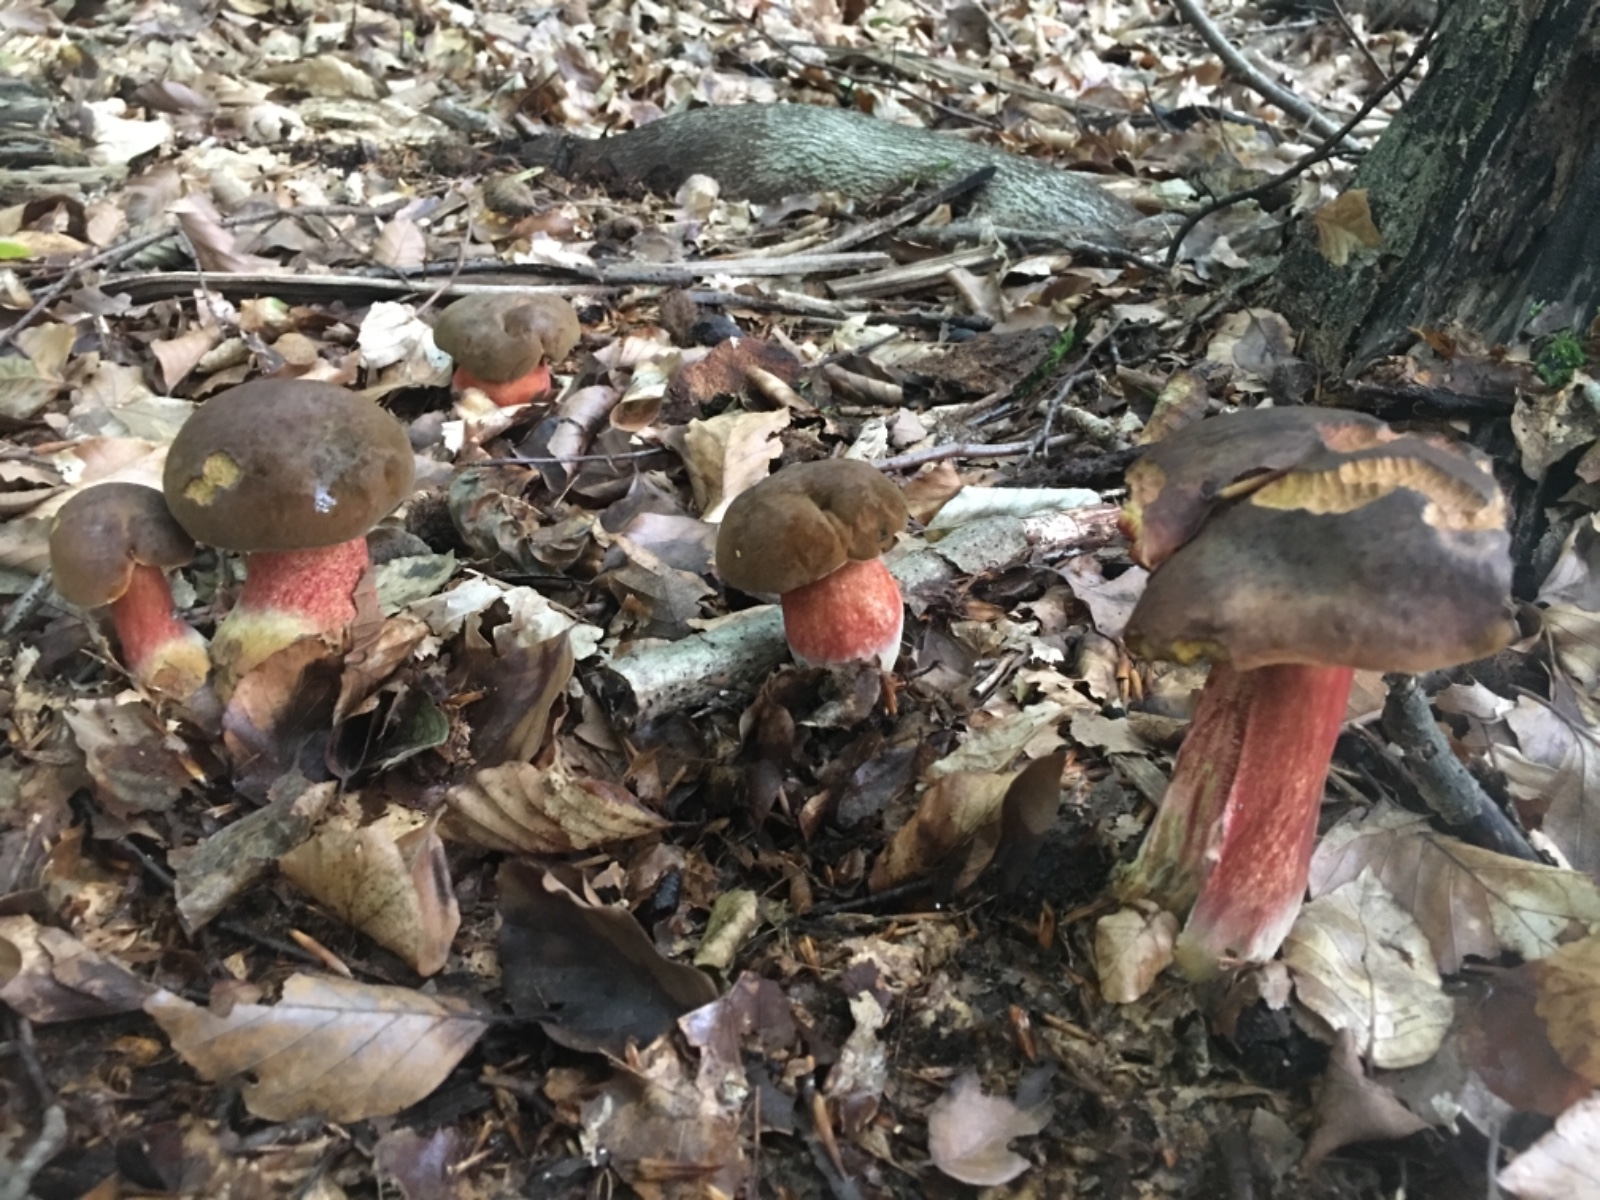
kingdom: Fungi
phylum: Basidiomycota
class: Agaricomycetes
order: Boletales
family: Boletaceae
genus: Neoboletus
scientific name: Neoboletus erythropus
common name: punktstokket indigorørhat
